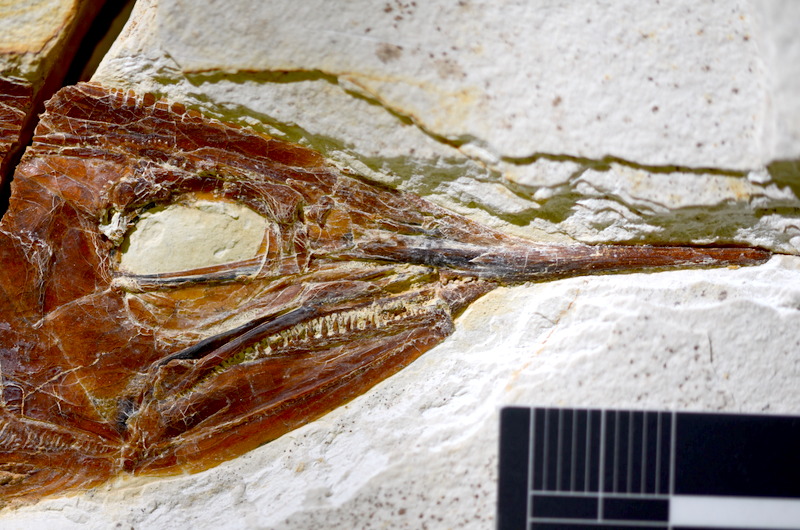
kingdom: Animalia
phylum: Chordata
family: Aspidorhynchidae
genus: Aspidorhynchus
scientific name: Aspidorhynchus sanzenbacheri
